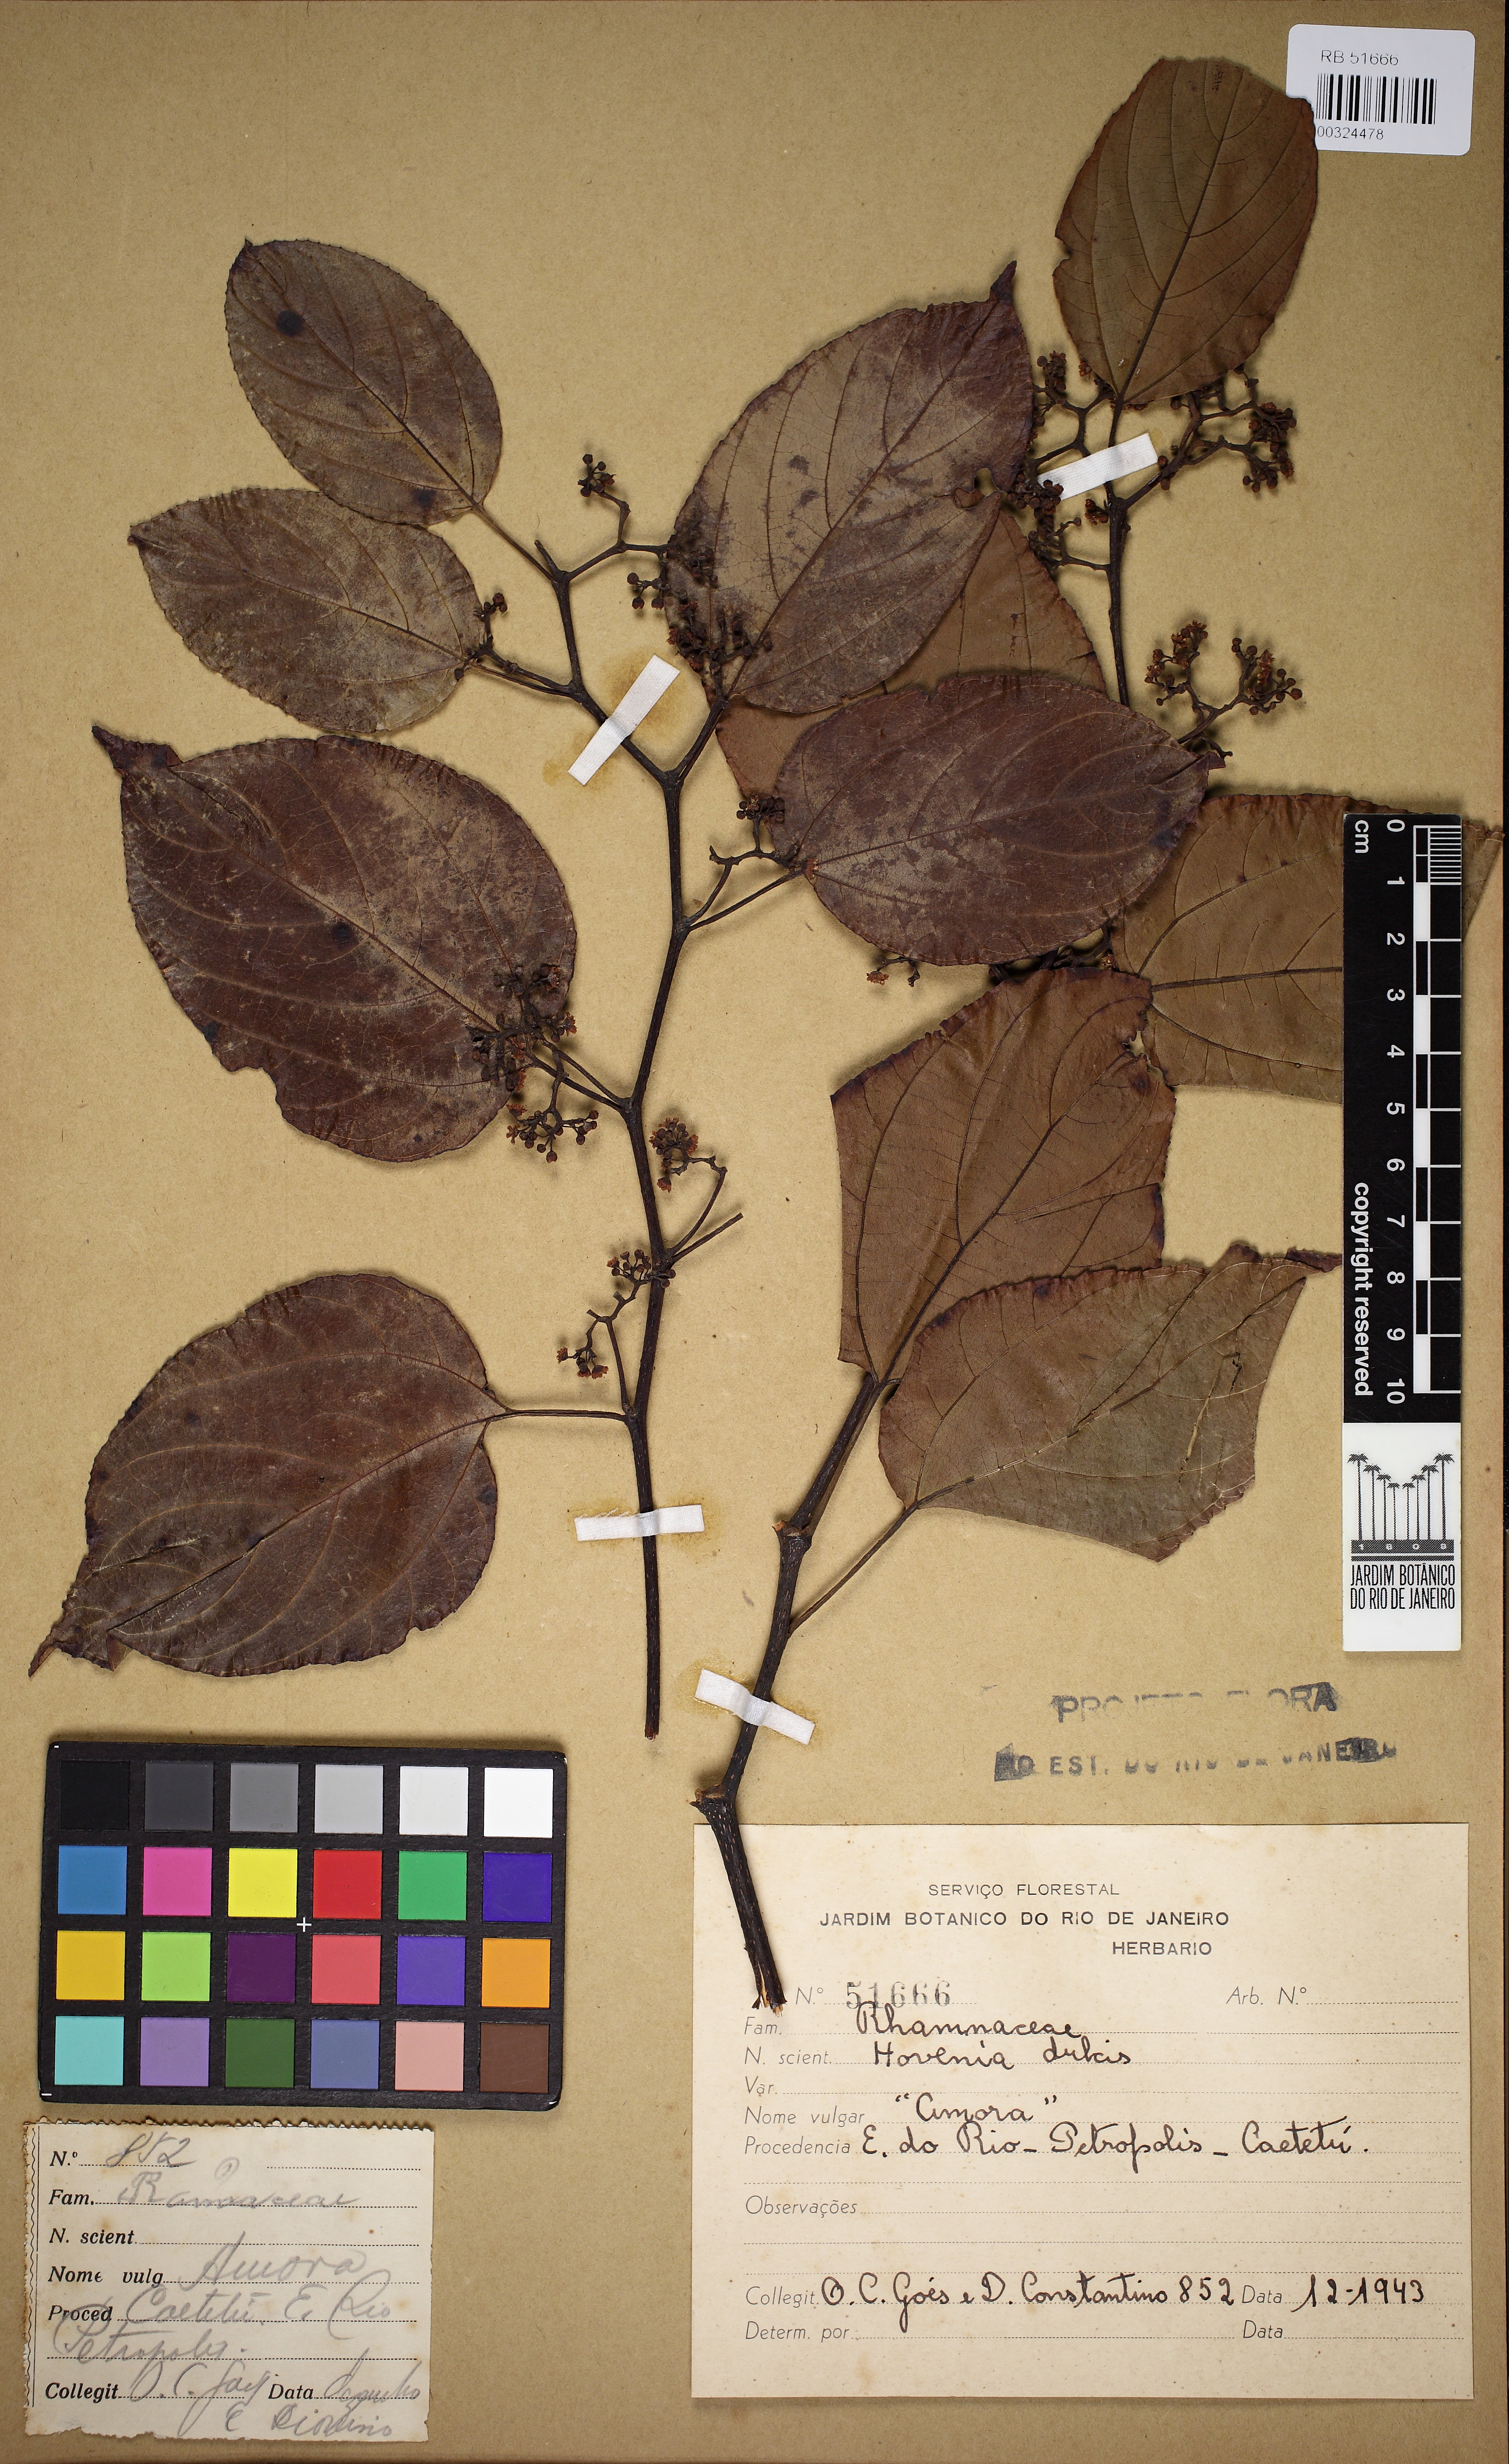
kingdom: Plantae
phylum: Tracheophyta
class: Magnoliopsida
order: Rosales
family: Rhamnaceae
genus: Hovenia
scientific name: Hovenia dulcis
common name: Japanese raisintree
